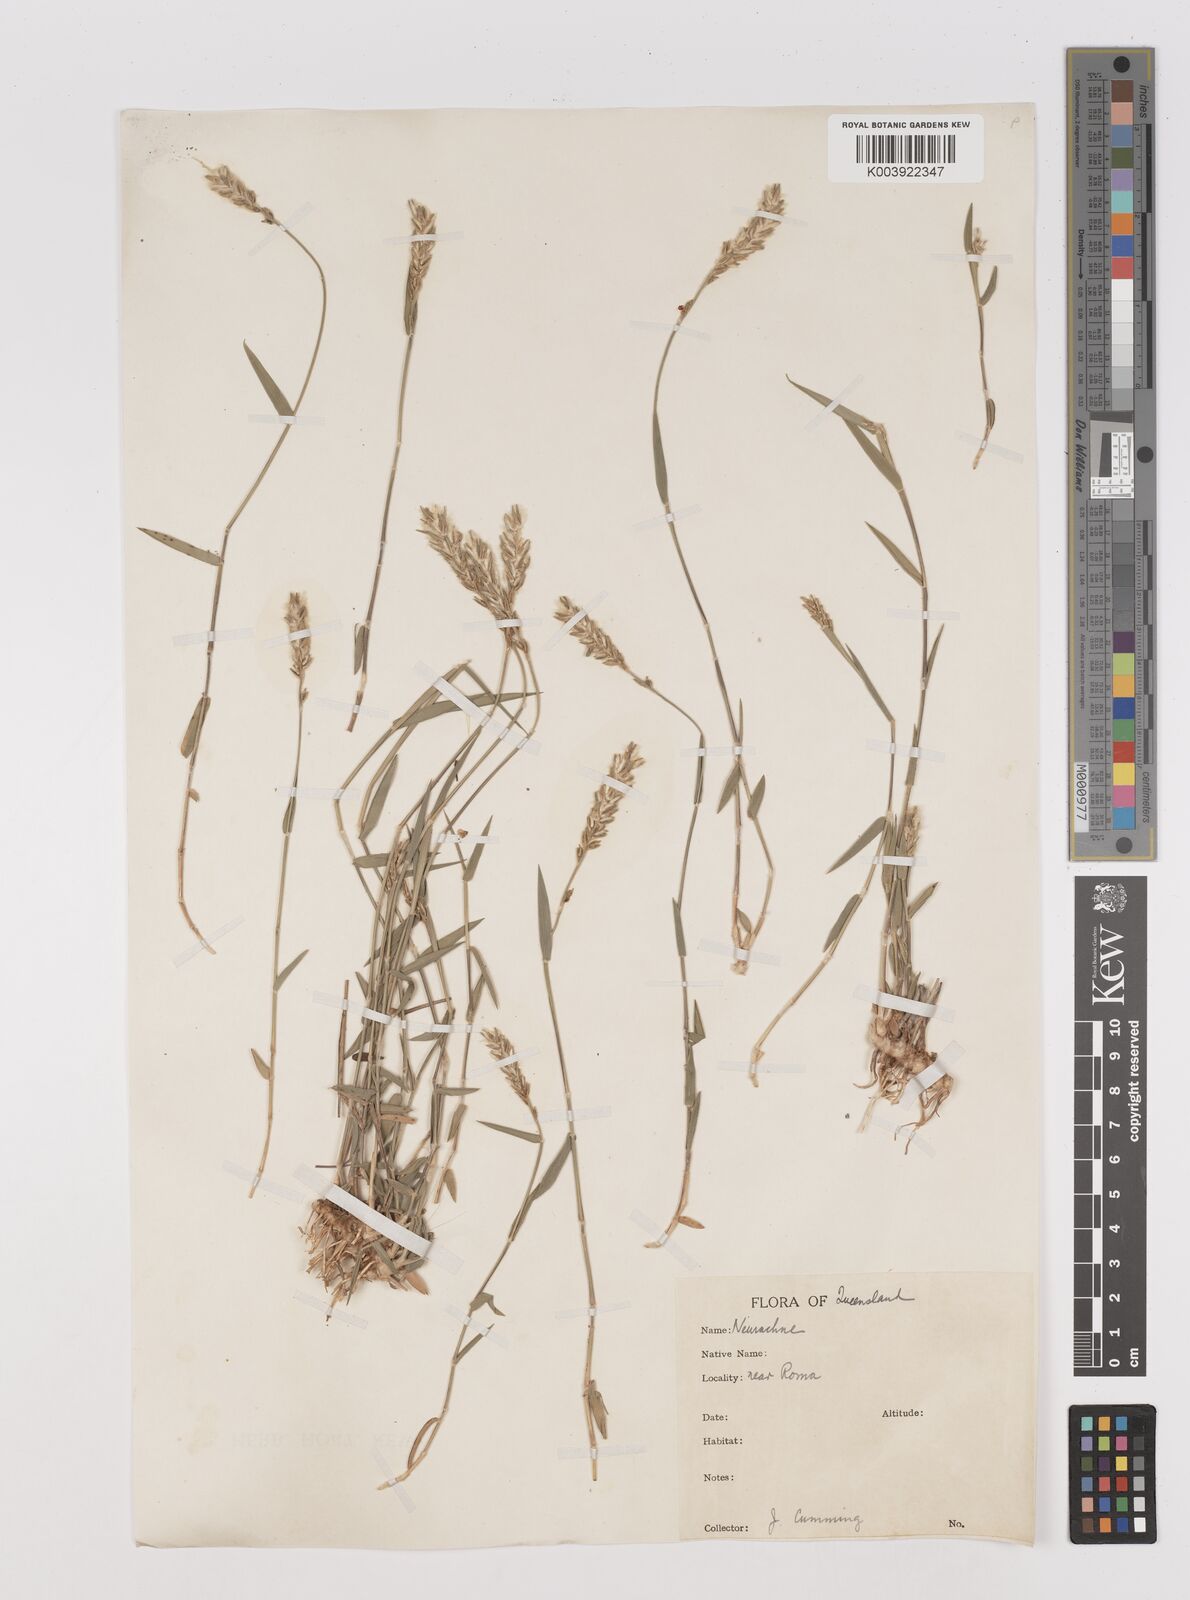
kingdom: Plantae
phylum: Tracheophyta
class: Liliopsida
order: Poales
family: Poaceae
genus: Thyridolepis
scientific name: Thyridolepis mitchelliana
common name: Rock tassel grass
